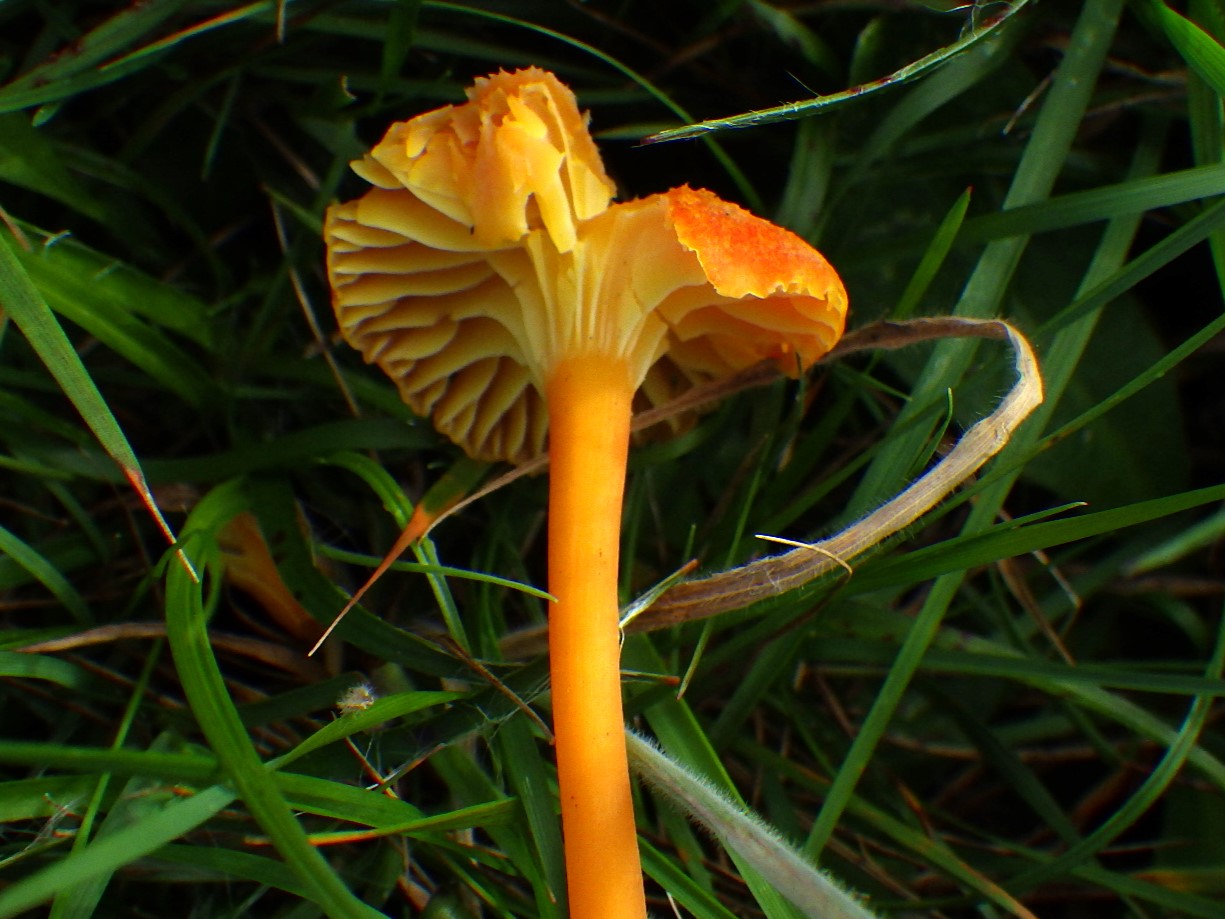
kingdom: Fungi
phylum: Basidiomycota
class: Agaricomycetes
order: Agaricales
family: Hygrophoraceae
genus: Hygrocybe
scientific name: Hygrocybe cantharellus
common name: kantarel-vokshat
